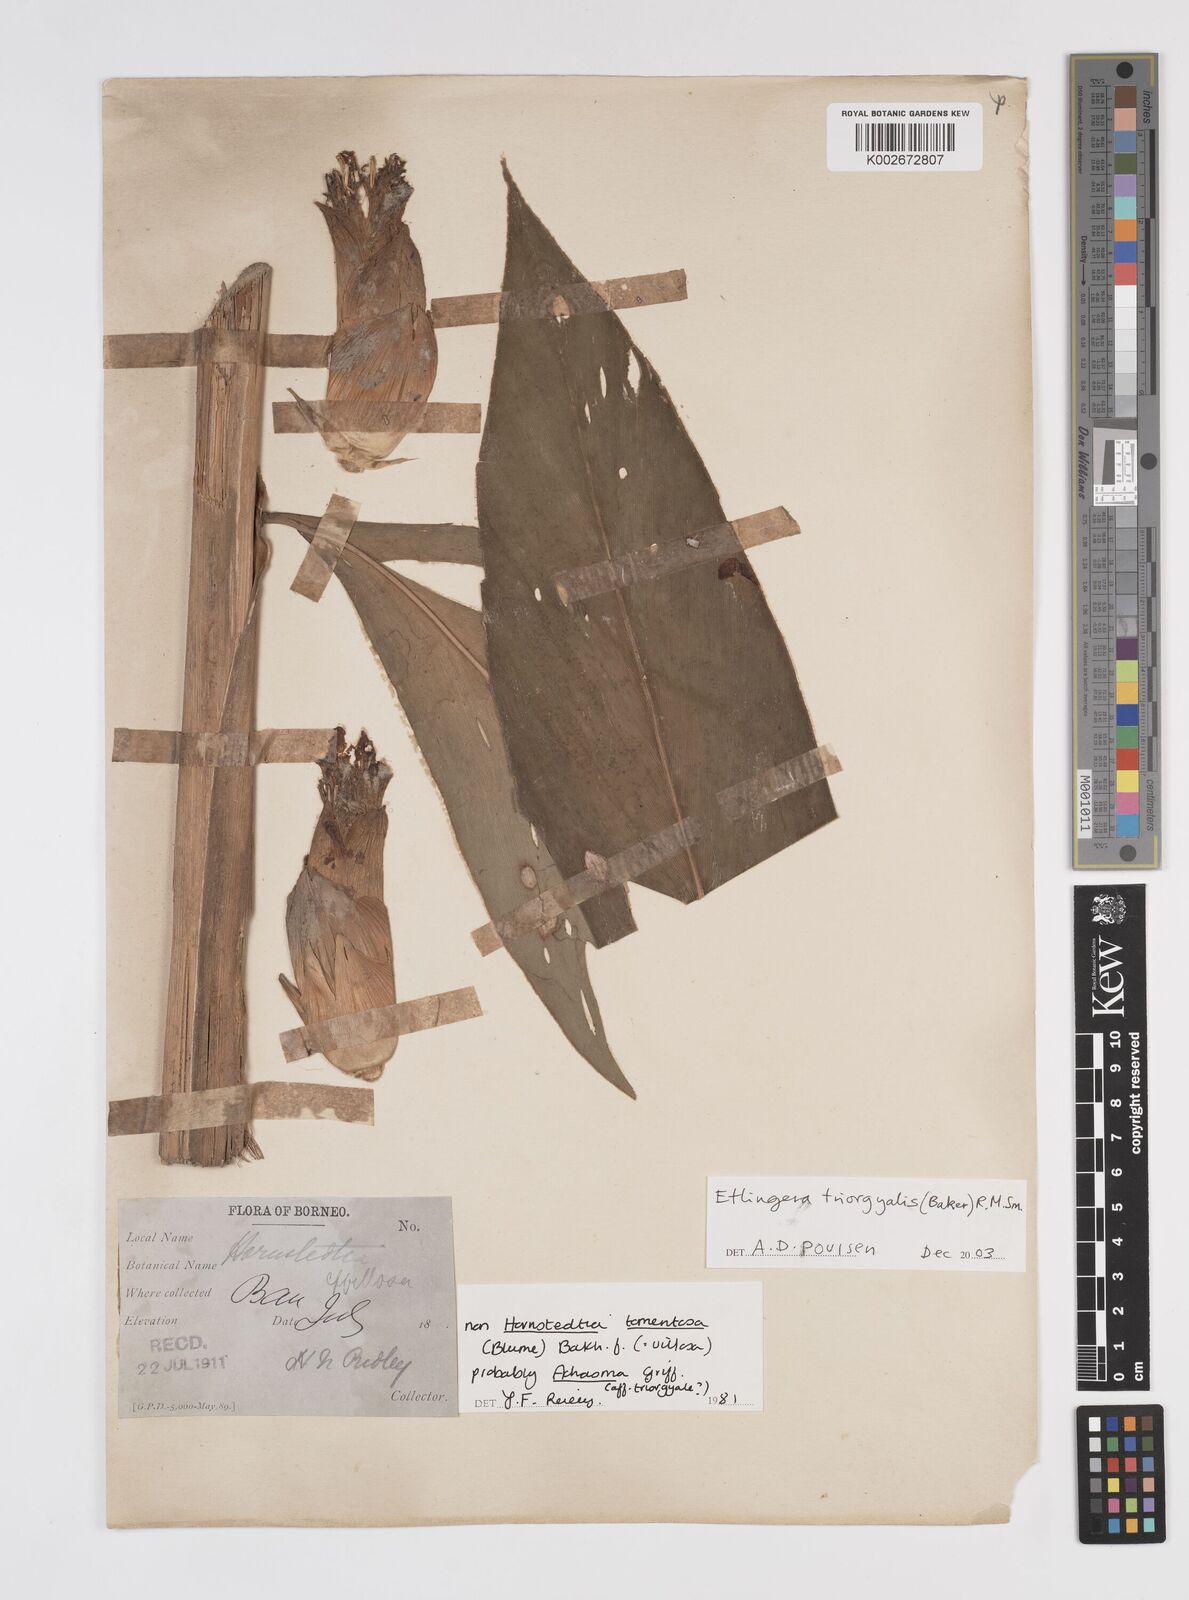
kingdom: Plantae
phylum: Tracheophyta
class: Liliopsida
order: Zingiberales
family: Zingiberaceae
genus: Etlingera
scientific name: Etlingera triorgyalis
